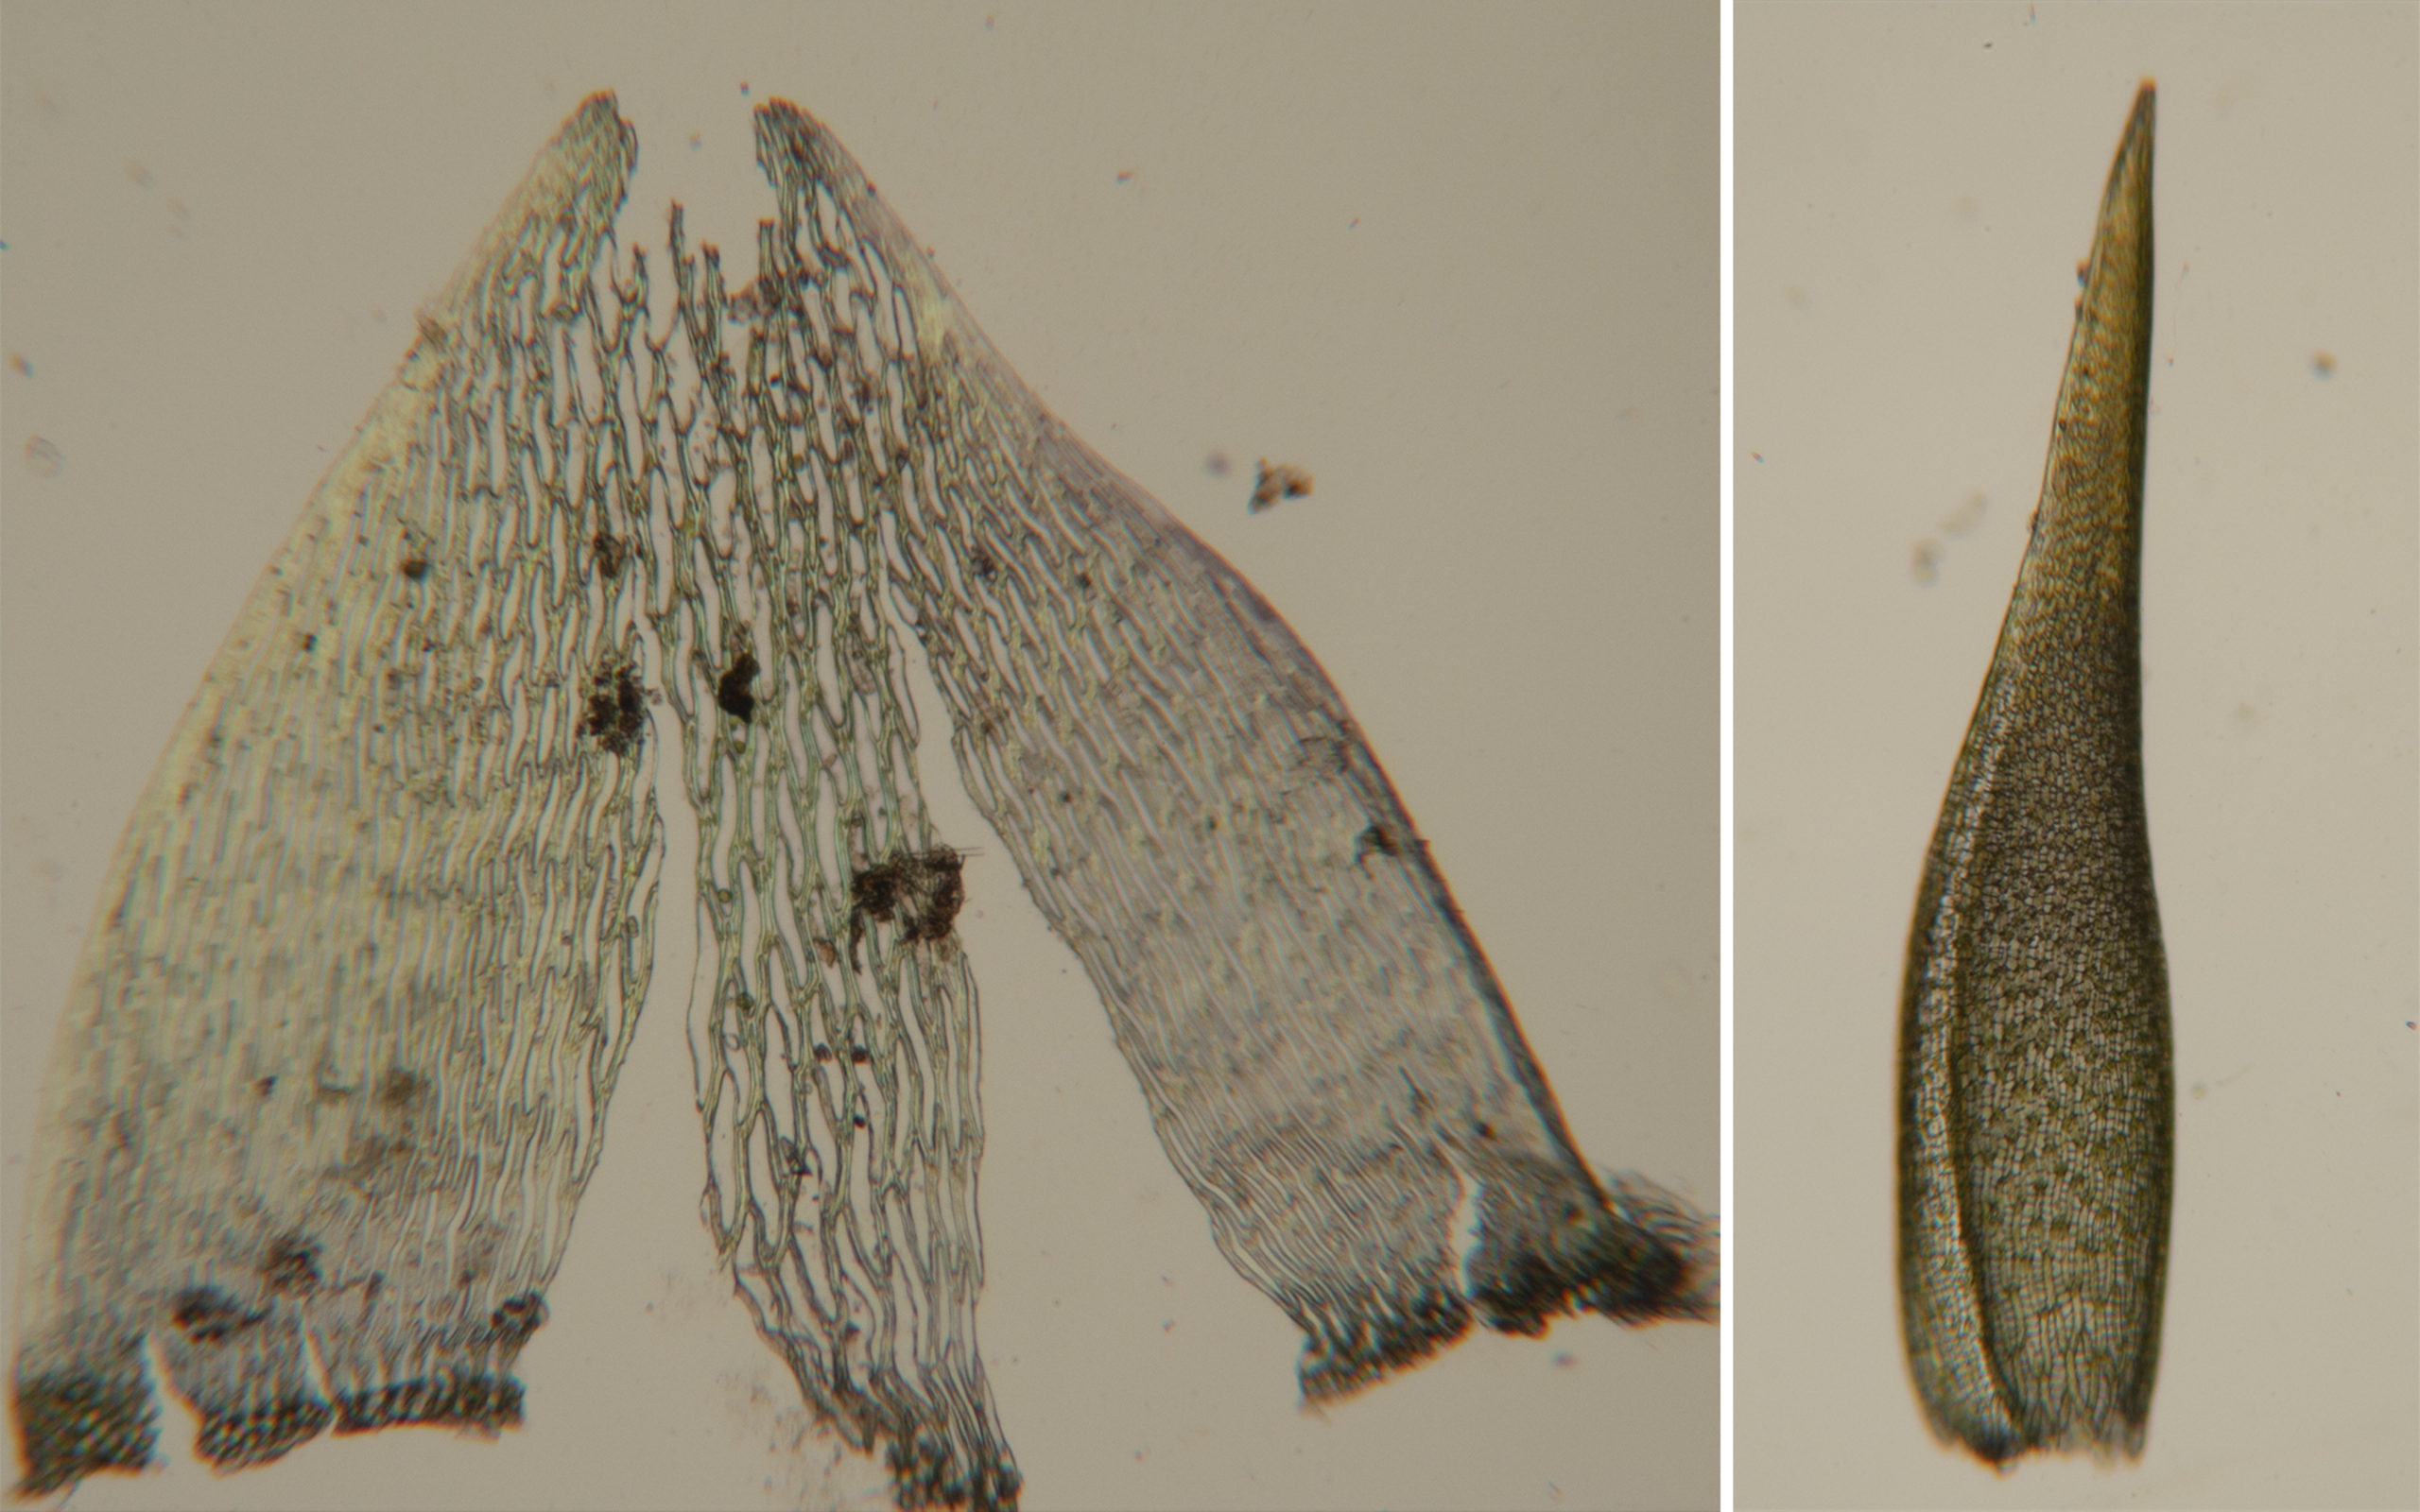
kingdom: Plantae
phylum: Bryophyta
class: Sphagnopsida
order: Sphagnales
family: Sphagnaceae
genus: Sphagnum
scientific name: Sphagnum riparium
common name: Kløftet tørvemos
